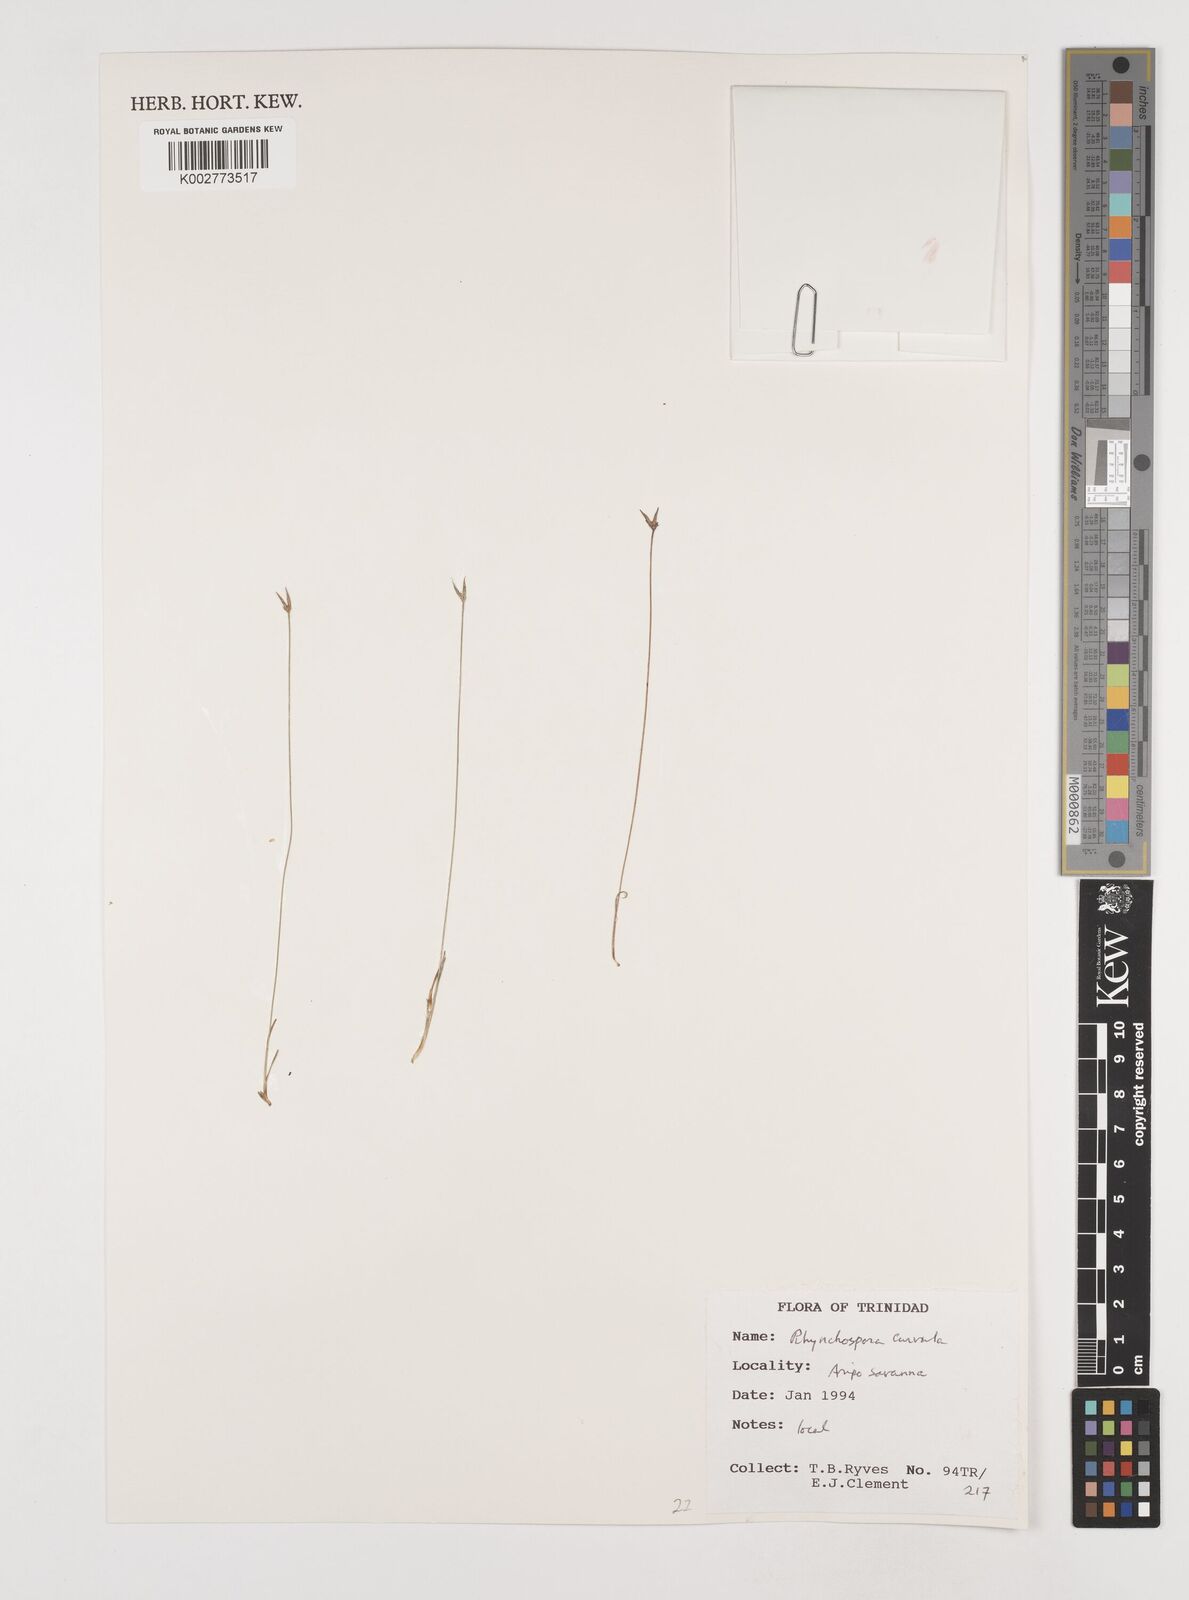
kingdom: Plantae
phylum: Tracheophyta
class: Liliopsida
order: Poales
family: Cyperaceae
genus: Rhynchospora
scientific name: Rhynchospora tenuis
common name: Quill beaksedge
